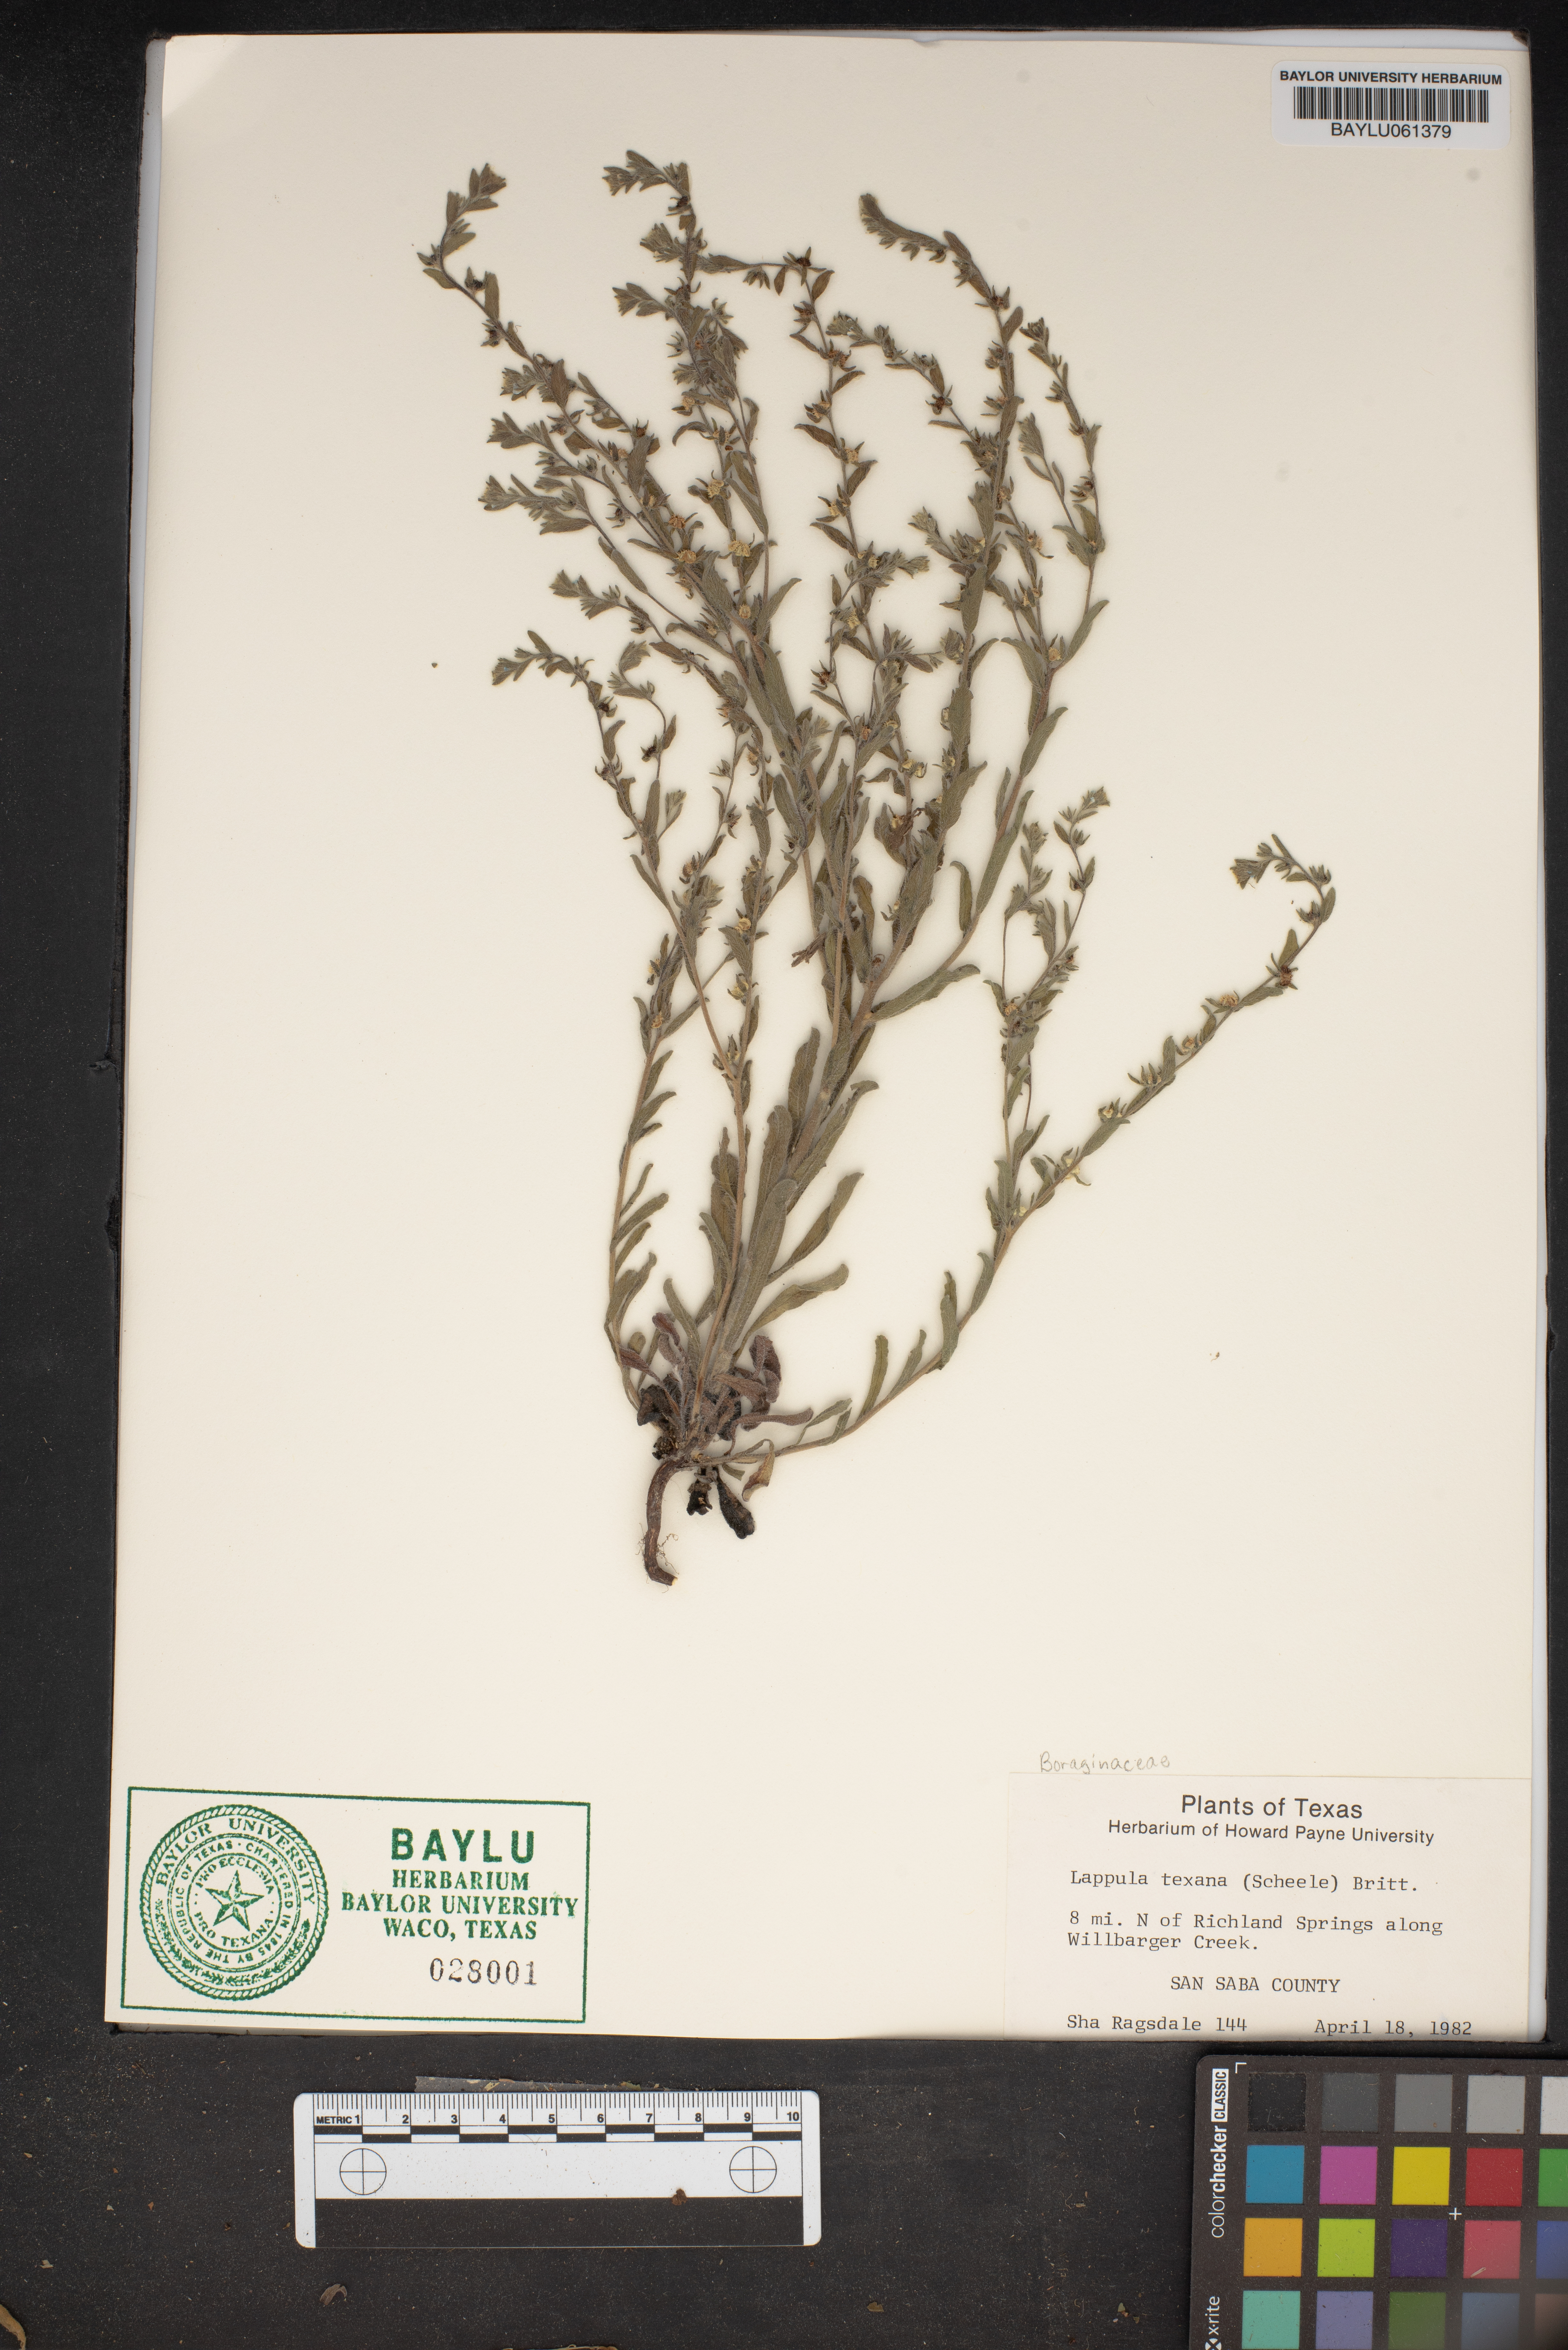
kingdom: Plantae
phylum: Tracheophyta
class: Magnoliopsida
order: Boraginales
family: Boraginaceae
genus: Lappula
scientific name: Lappula occidentalis
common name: Western stickseed
